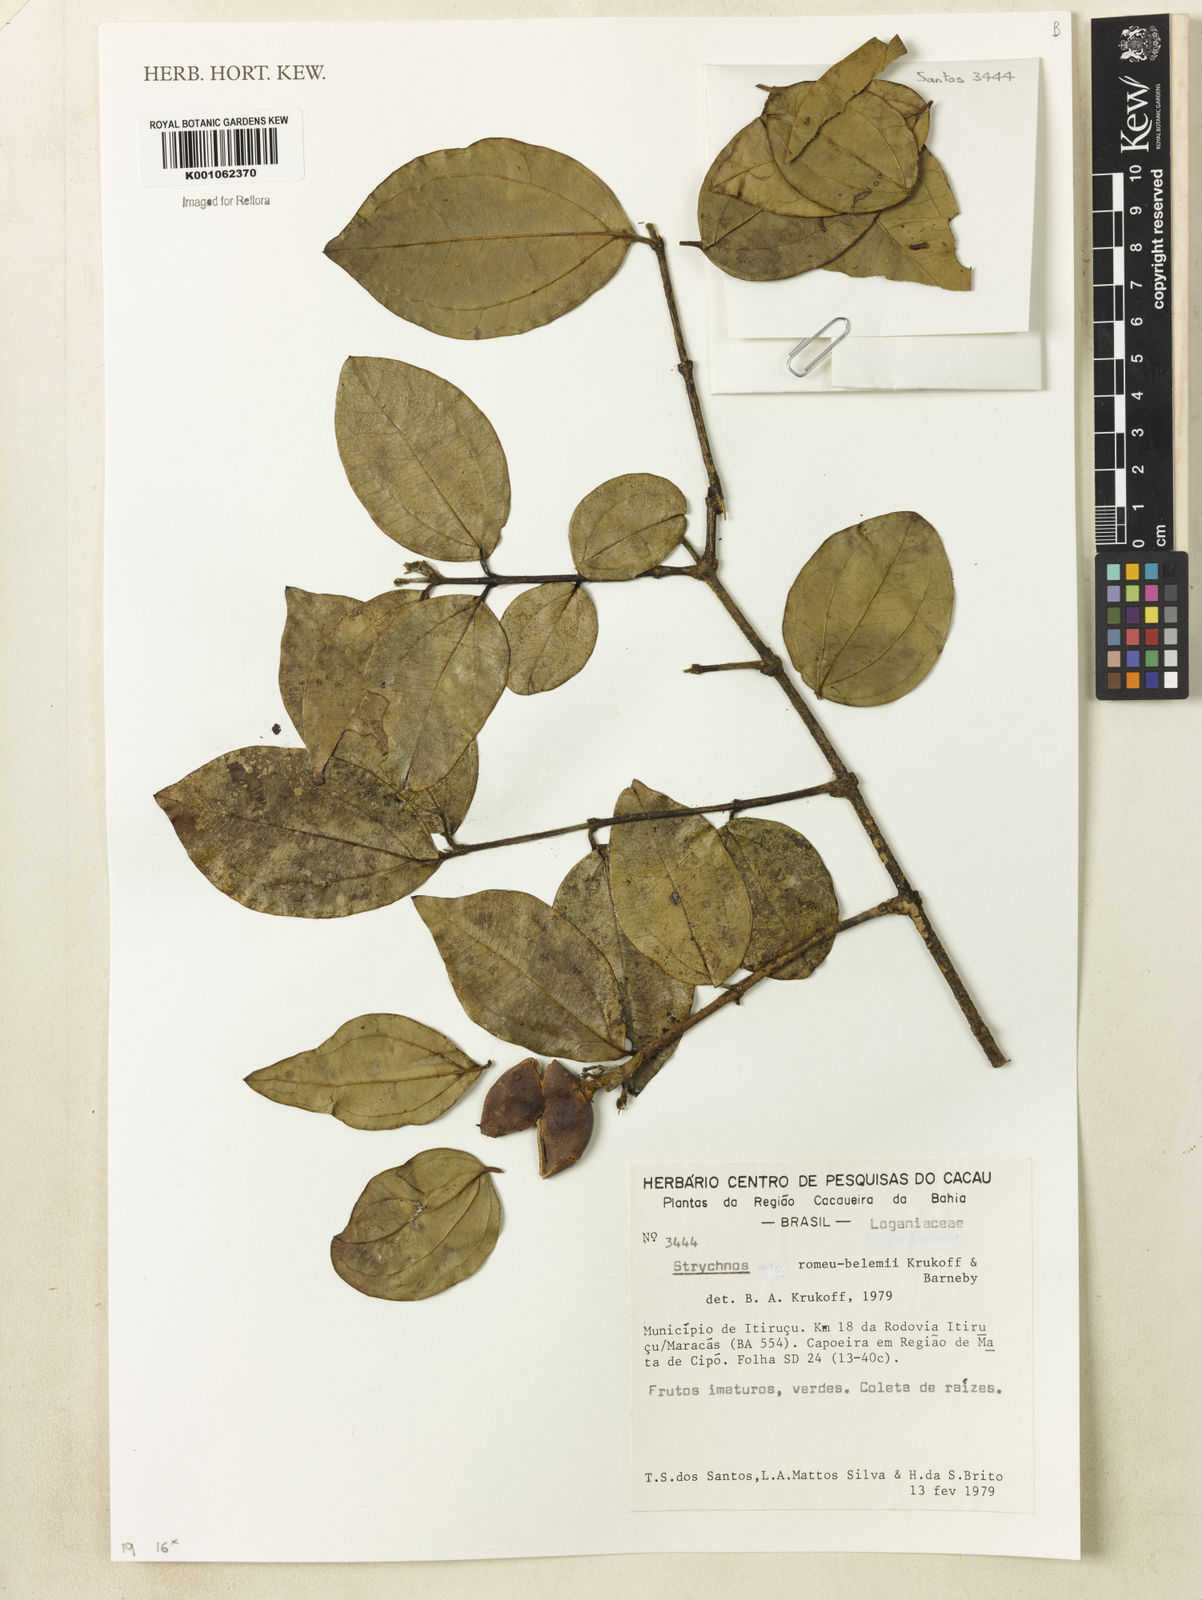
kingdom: Plantae
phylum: Tracheophyta
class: Magnoliopsida
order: Gentianales
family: Loganiaceae
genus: Strychnos
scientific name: Strychnos romeu-belenii
